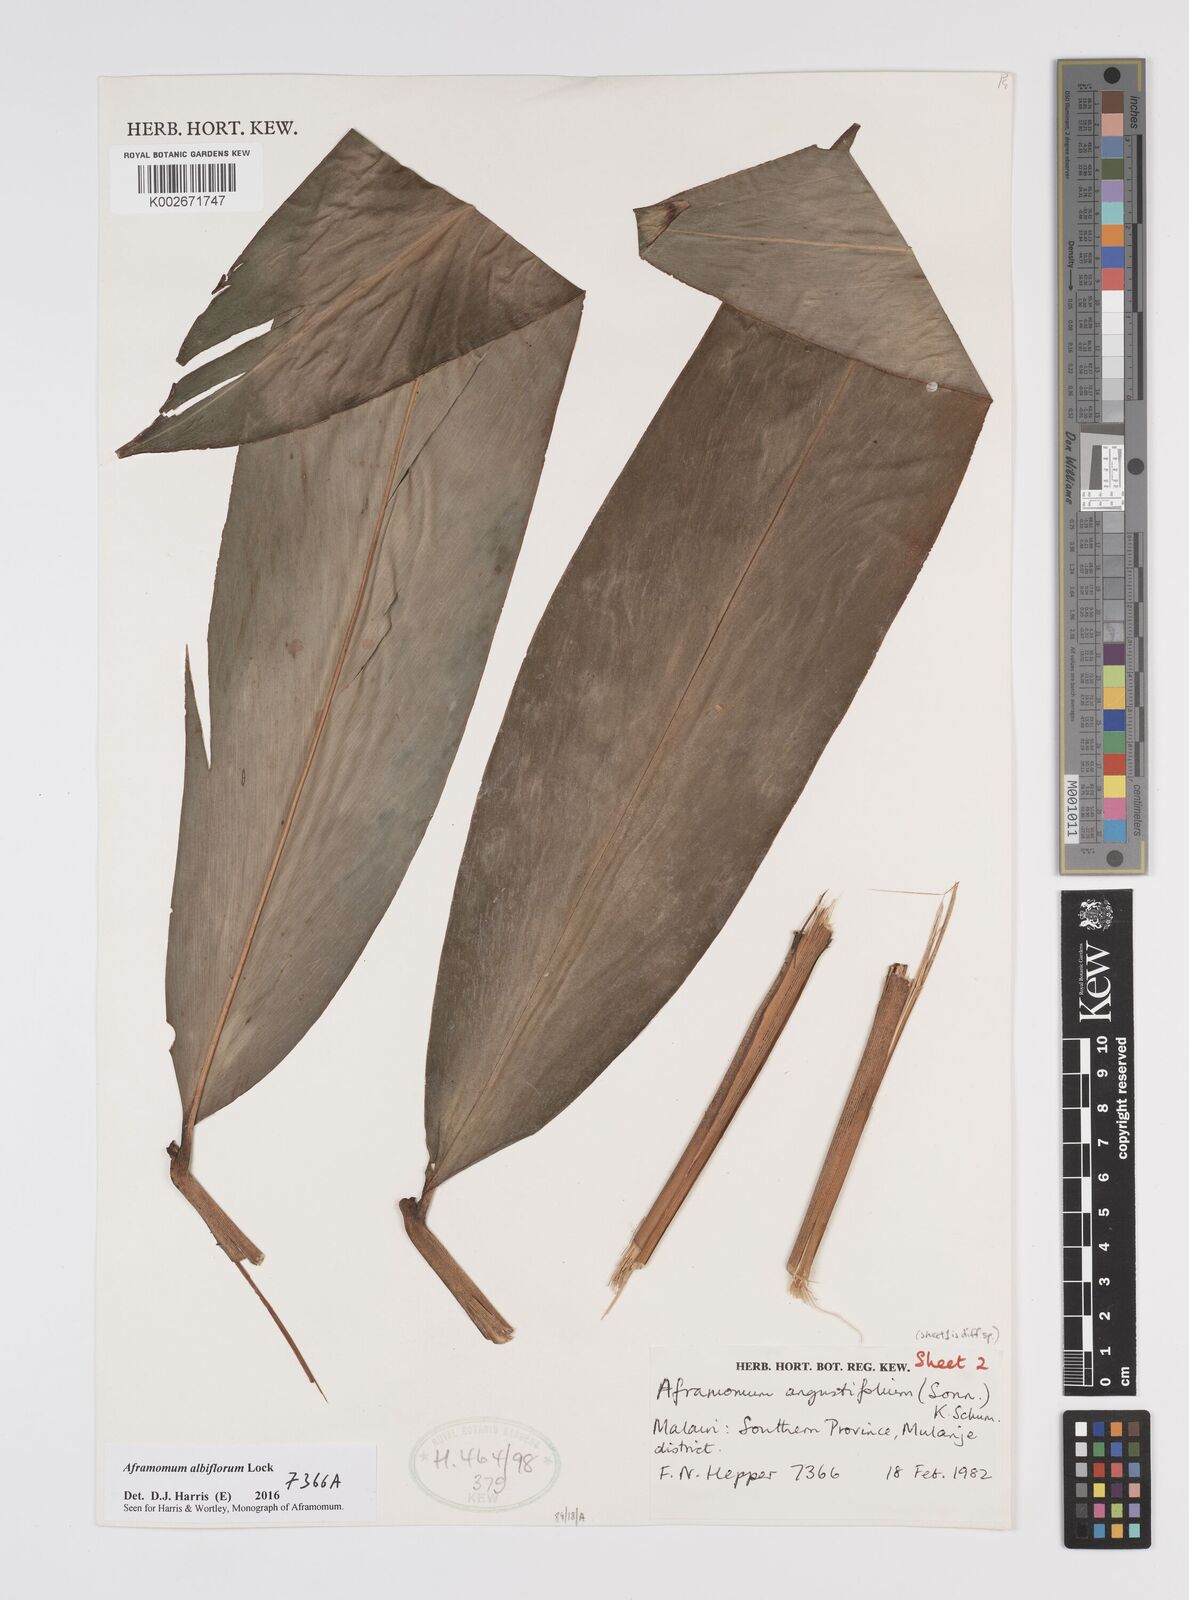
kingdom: Plantae
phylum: Tracheophyta
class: Liliopsida
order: Zingiberales
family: Zingiberaceae
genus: Aframomum
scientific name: Aframomum albiflorum
